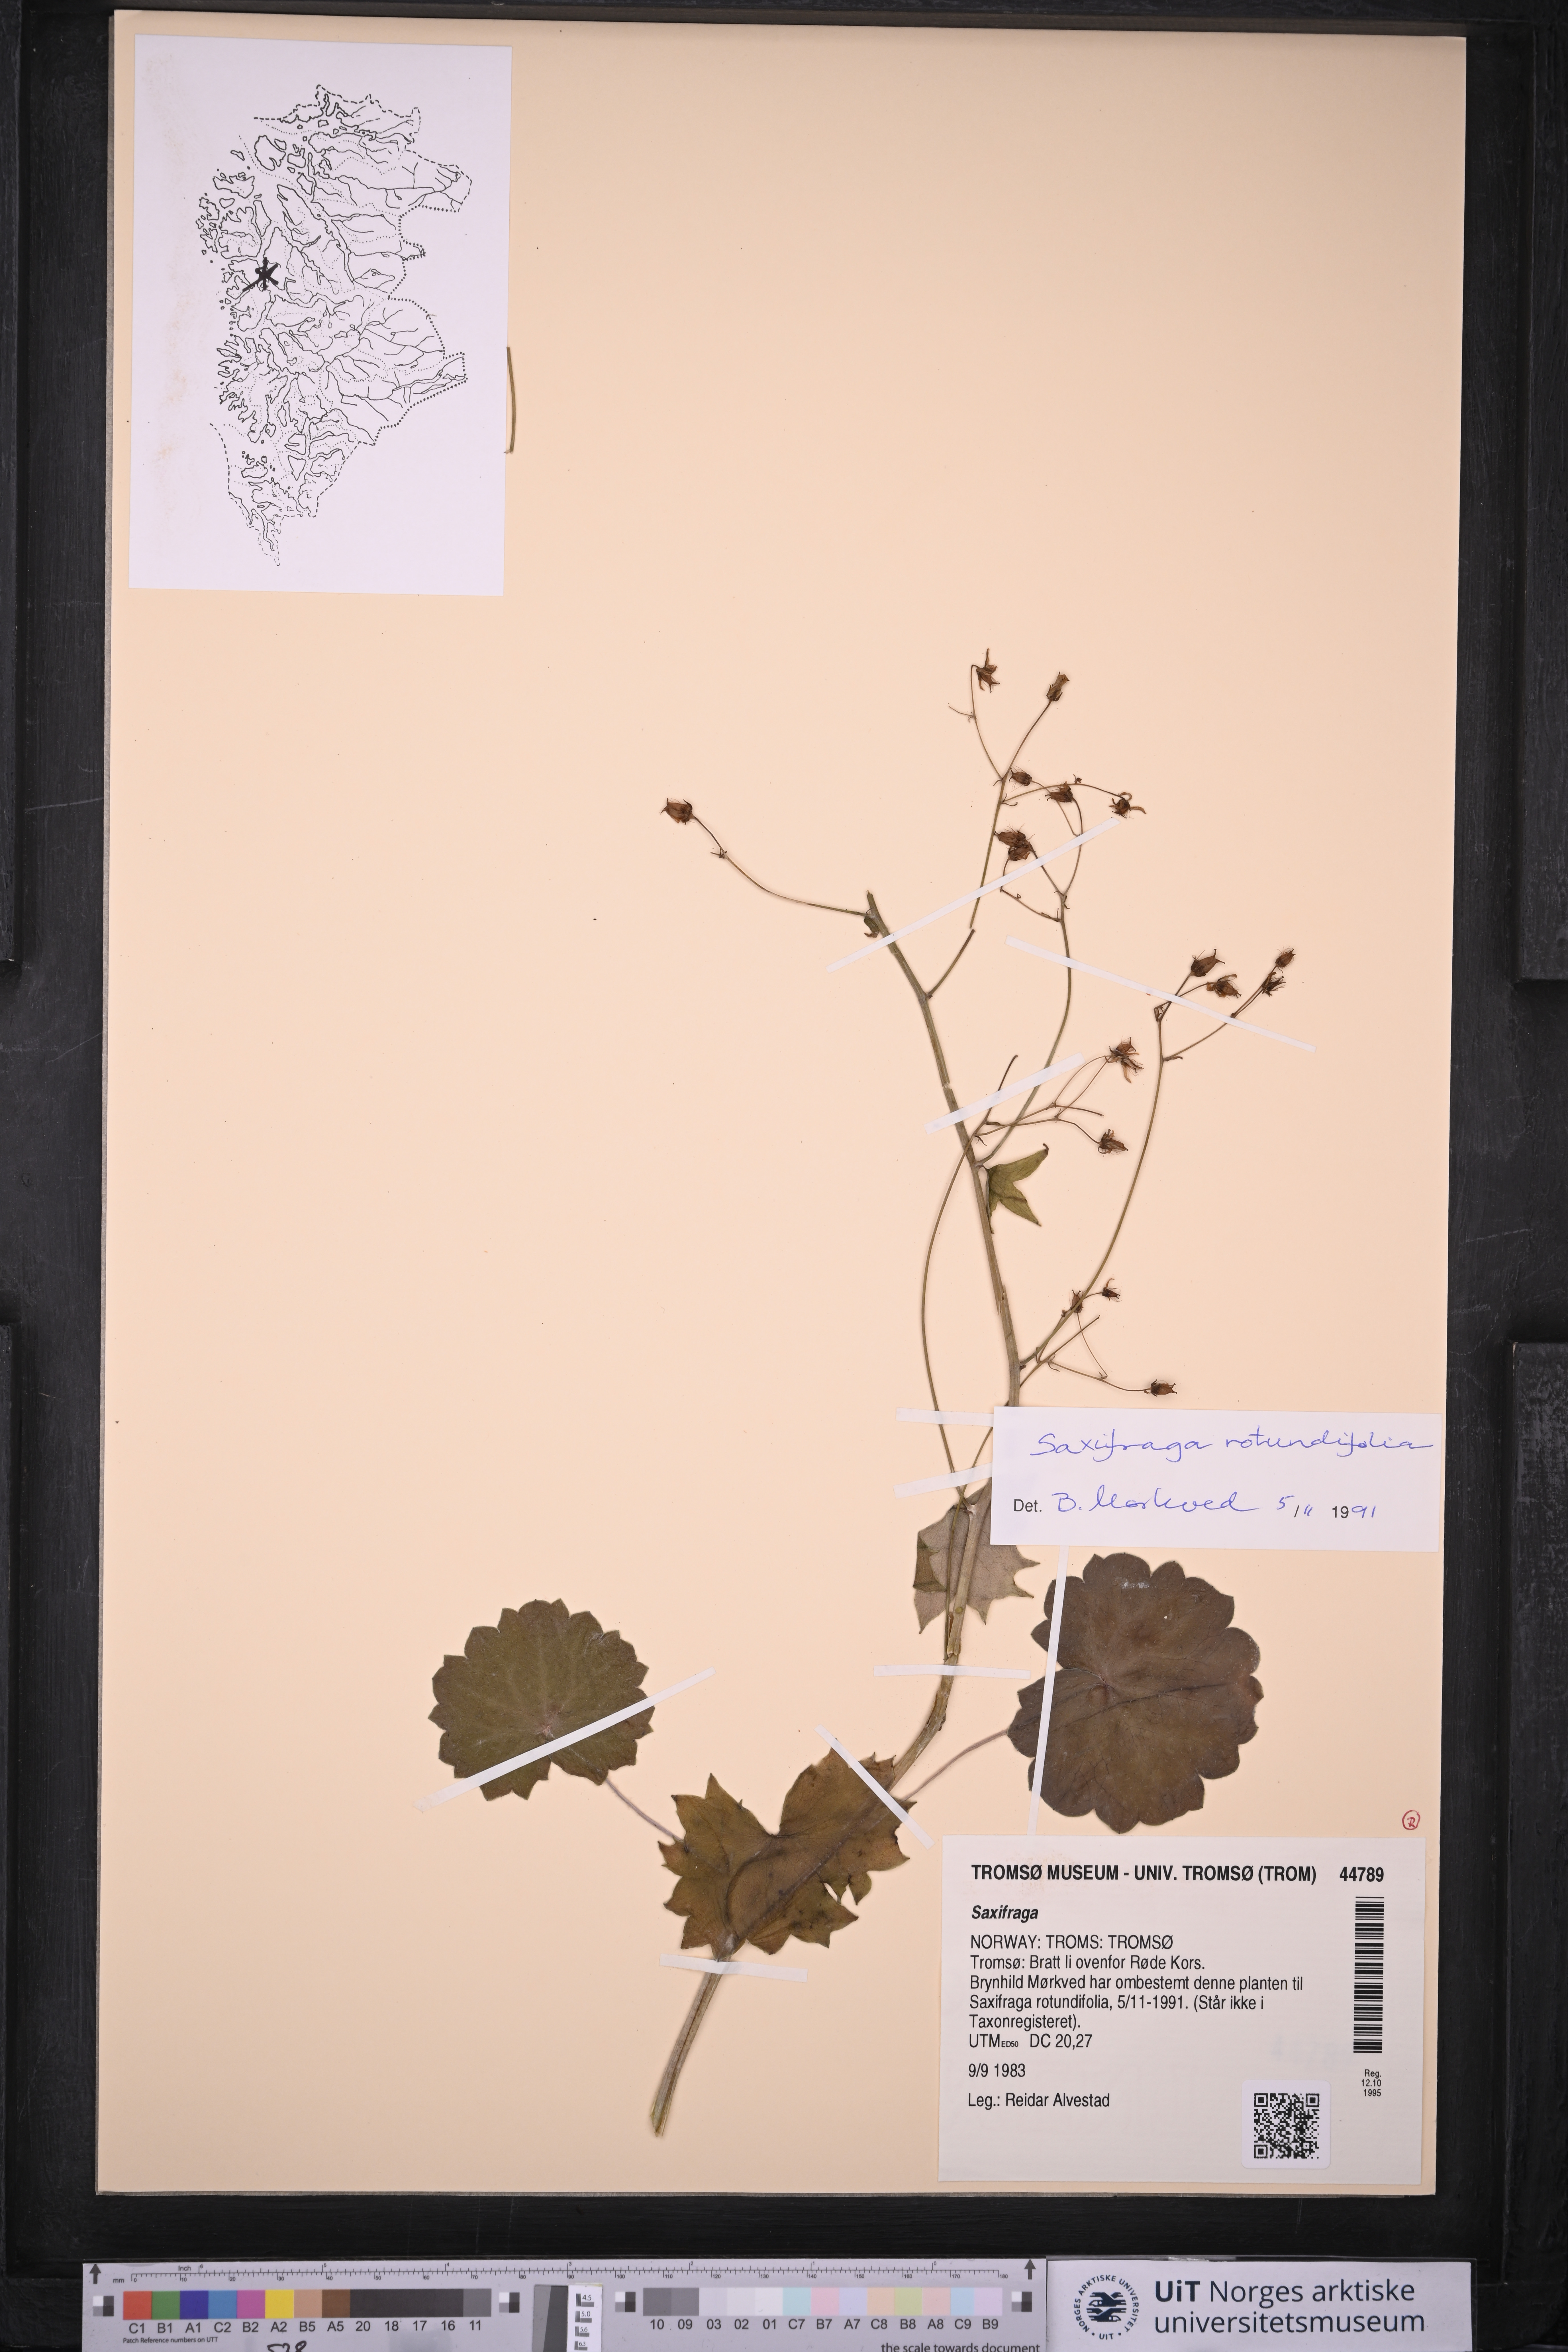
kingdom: Plantae
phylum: Tracheophyta
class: Magnoliopsida
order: Saxifragales
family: Saxifragaceae
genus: Saxifraga
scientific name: Saxifraga
